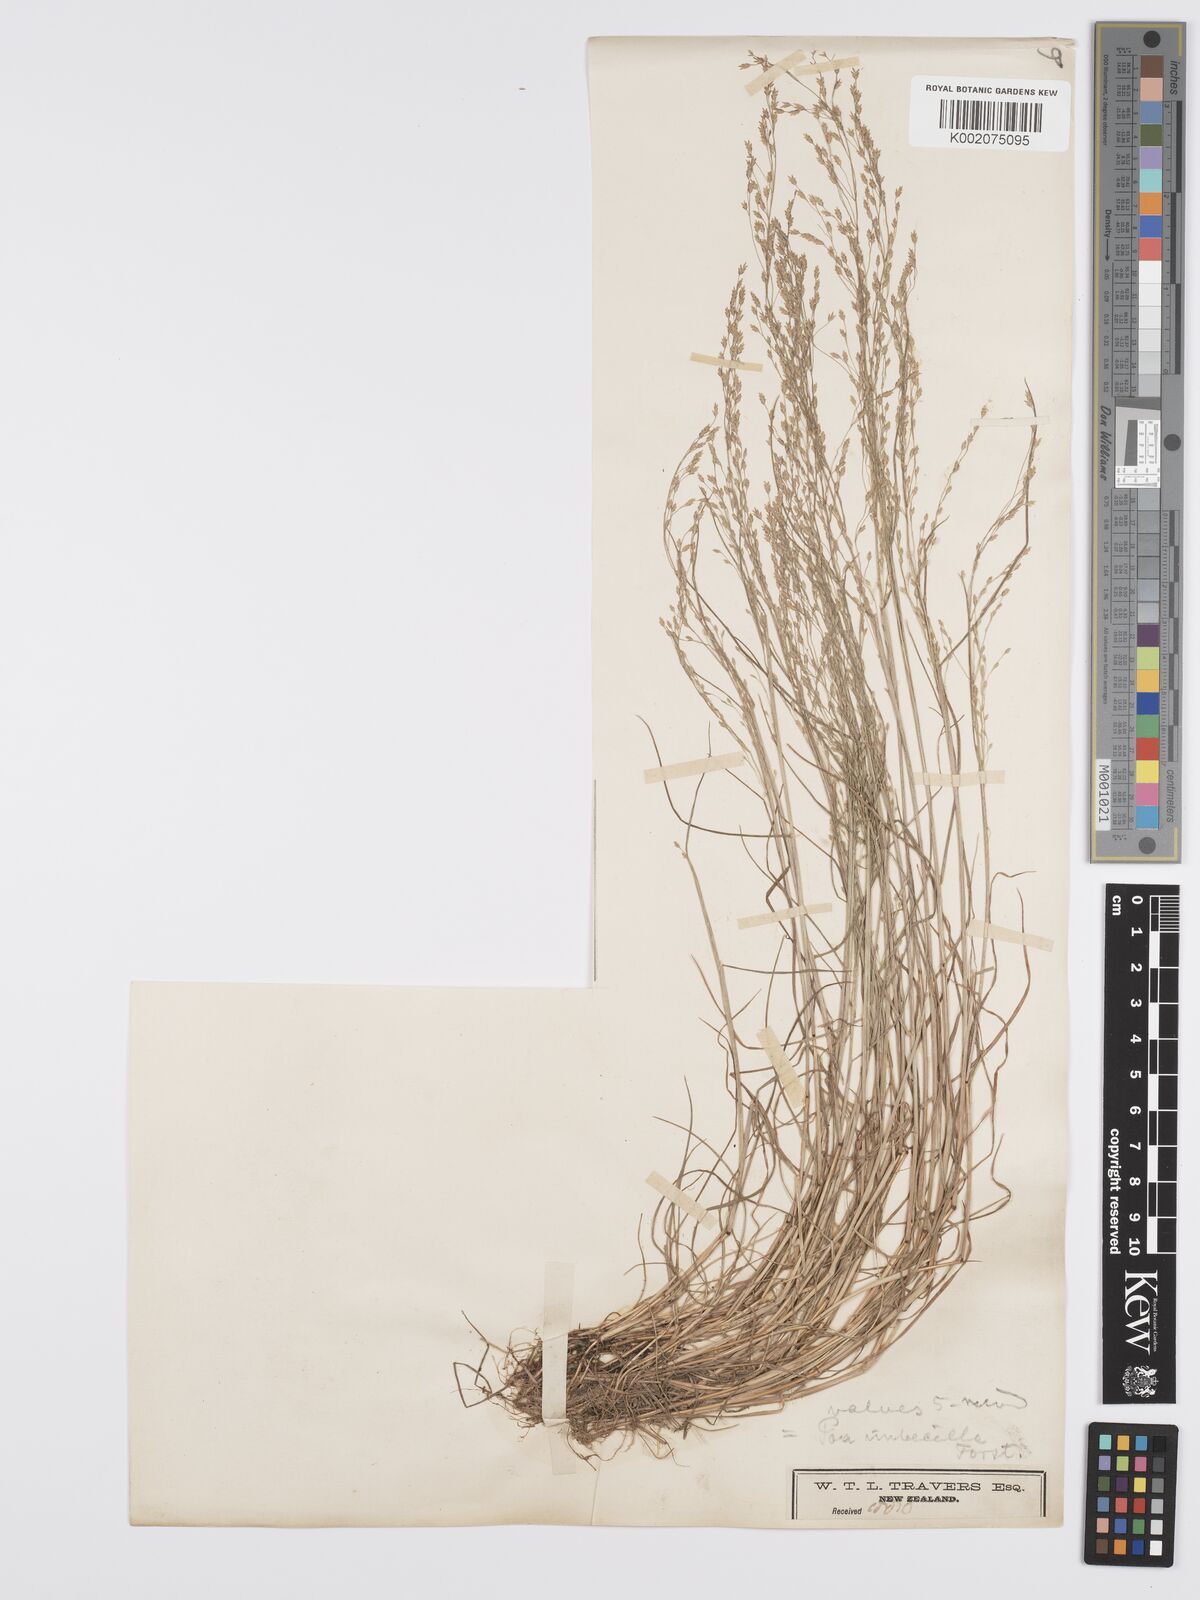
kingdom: Plantae
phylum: Tracheophyta
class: Liliopsida
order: Poales
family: Poaceae
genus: Poa
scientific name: Poa
